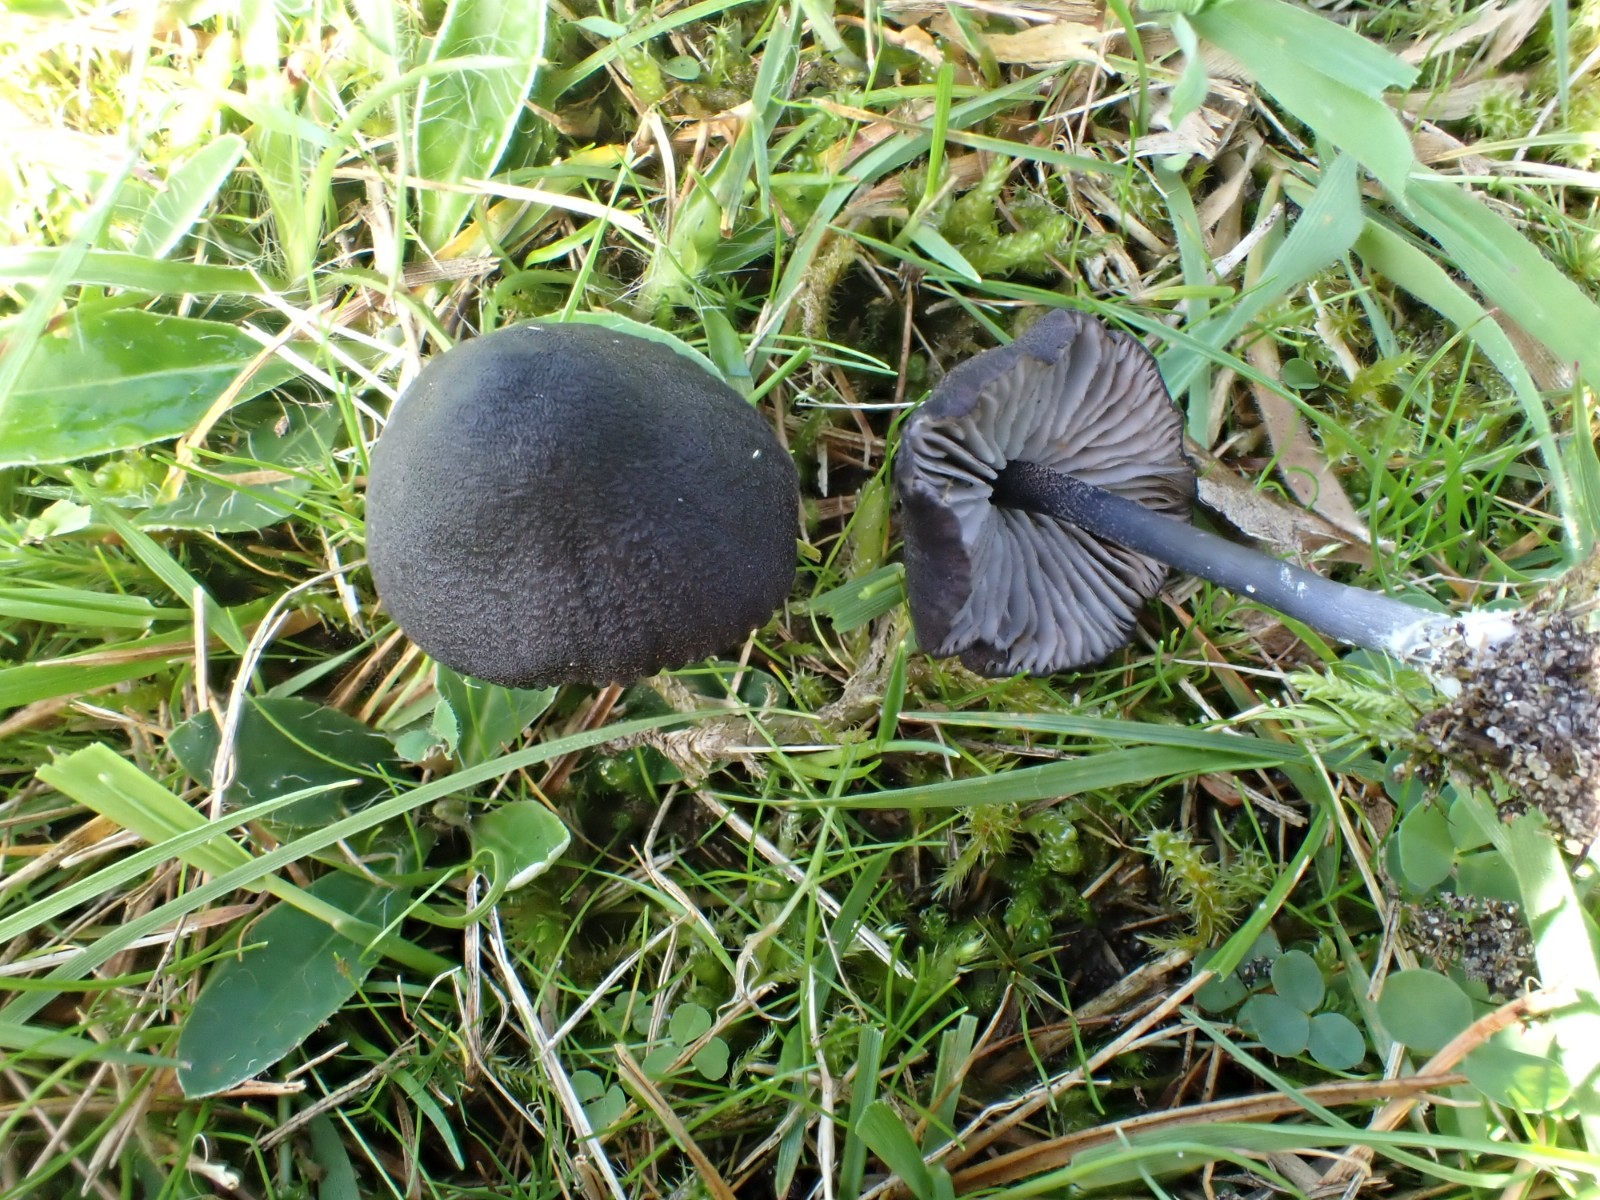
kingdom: Fungi
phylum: Basidiomycota
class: Agaricomycetes
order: Agaricales
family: Entolomataceae
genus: Entoloma
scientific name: Entoloma chalybeum
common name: blåbladet rødblad
